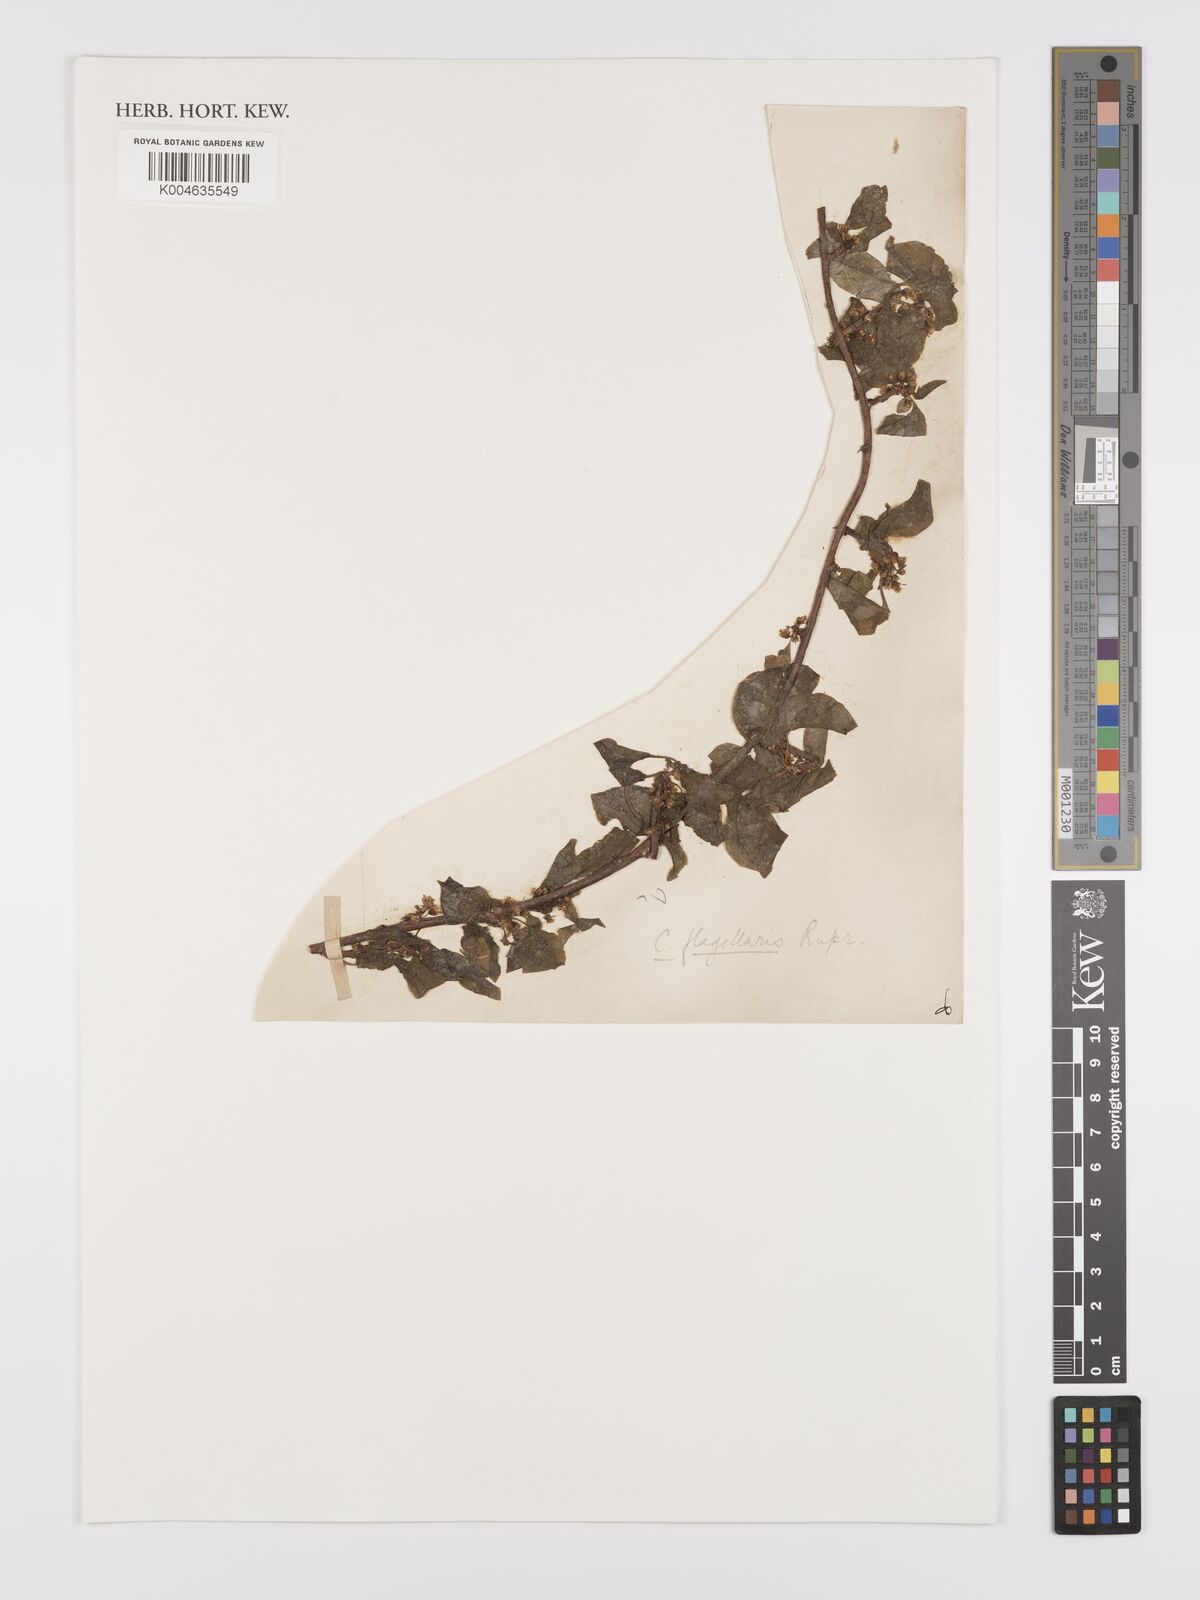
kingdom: Plantae
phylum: Tracheophyta
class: Magnoliopsida
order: Celastrales
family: Celastraceae
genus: Celastrus
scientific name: Celastrus flagellaris
